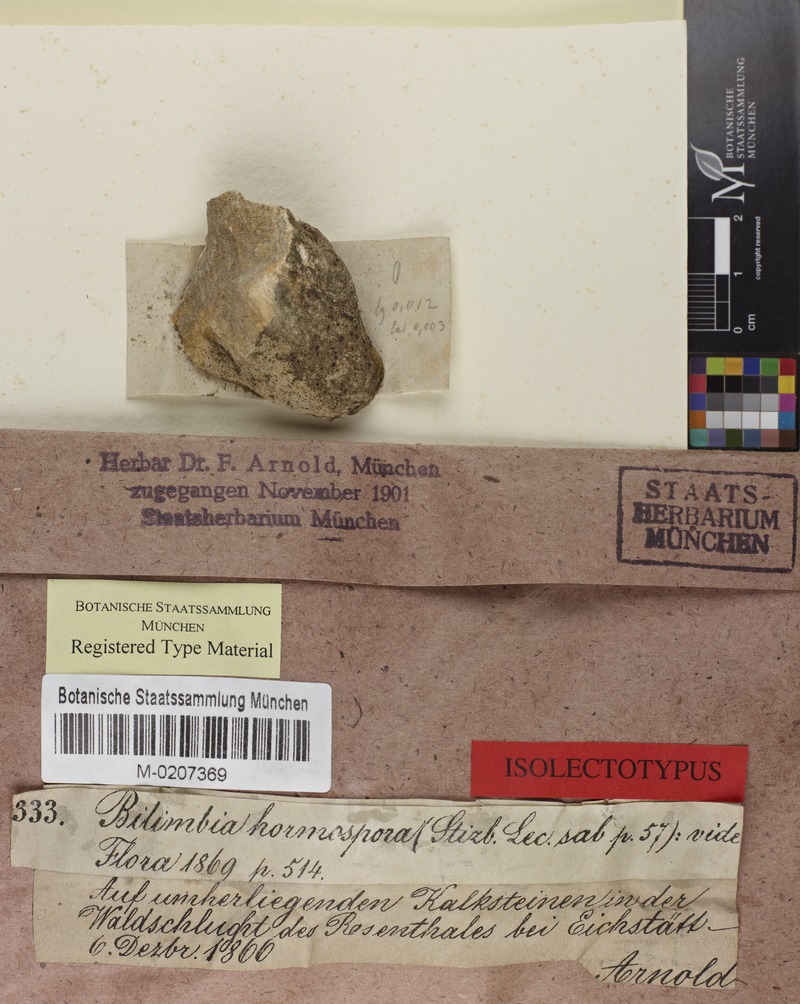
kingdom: Fungi
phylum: Ascomycota
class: Lecanoromycetes
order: Lecanorales
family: Ramalinaceae
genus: Toniniopsis
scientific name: Toniniopsis coprodes
